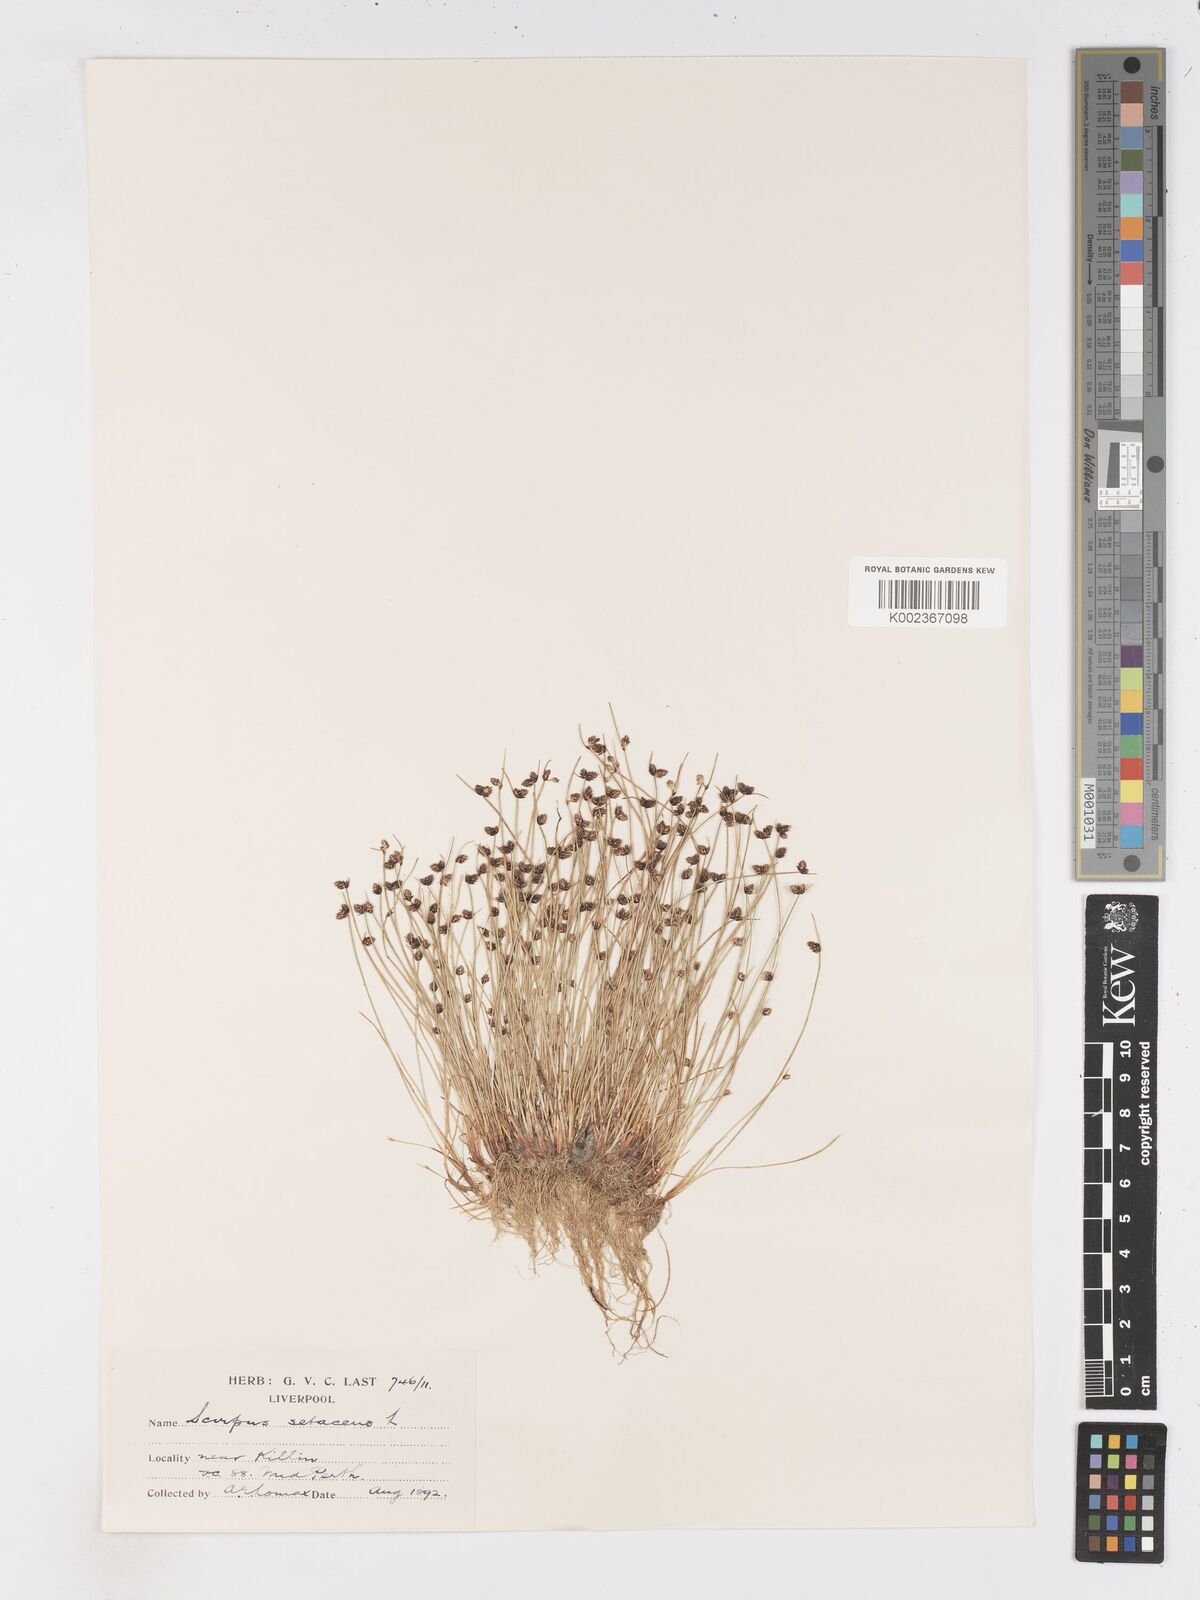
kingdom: Plantae
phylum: Tracheophyta
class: Liliopsida
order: Poales
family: Cyperaceae
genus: Isolepis
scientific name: Isolepis setacea
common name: Bristle club-rush
